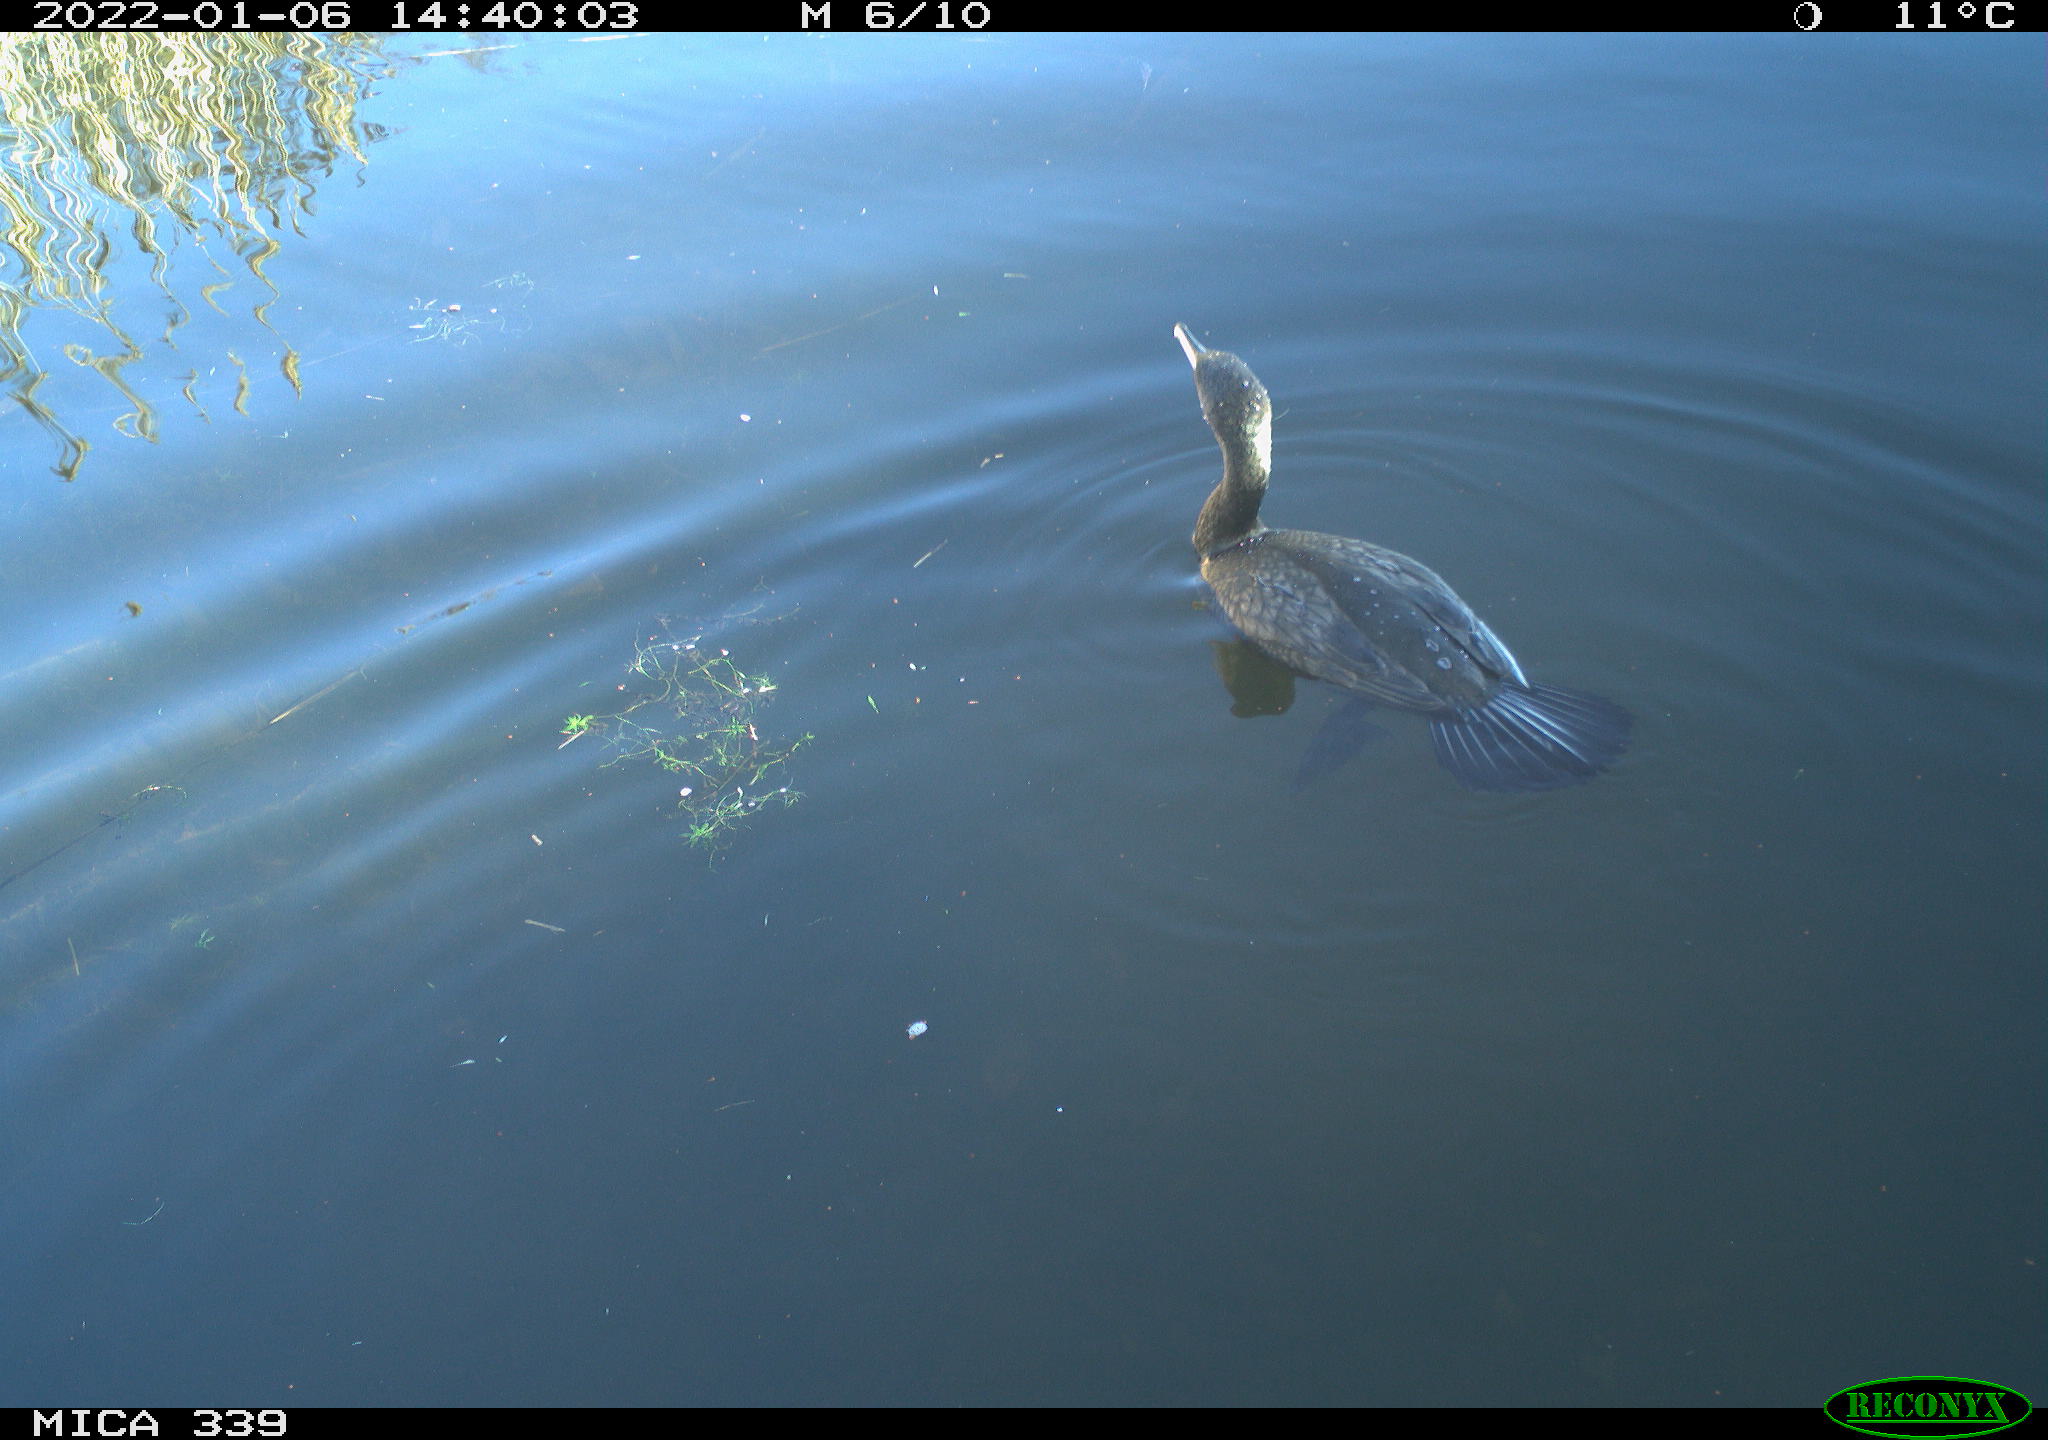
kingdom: Animalia
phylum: Chordata
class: Aves
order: Suliformes
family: Phalacrocoracidae
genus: Phalacrocorax
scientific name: Phalacrocorax carbo
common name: Great cormorant
